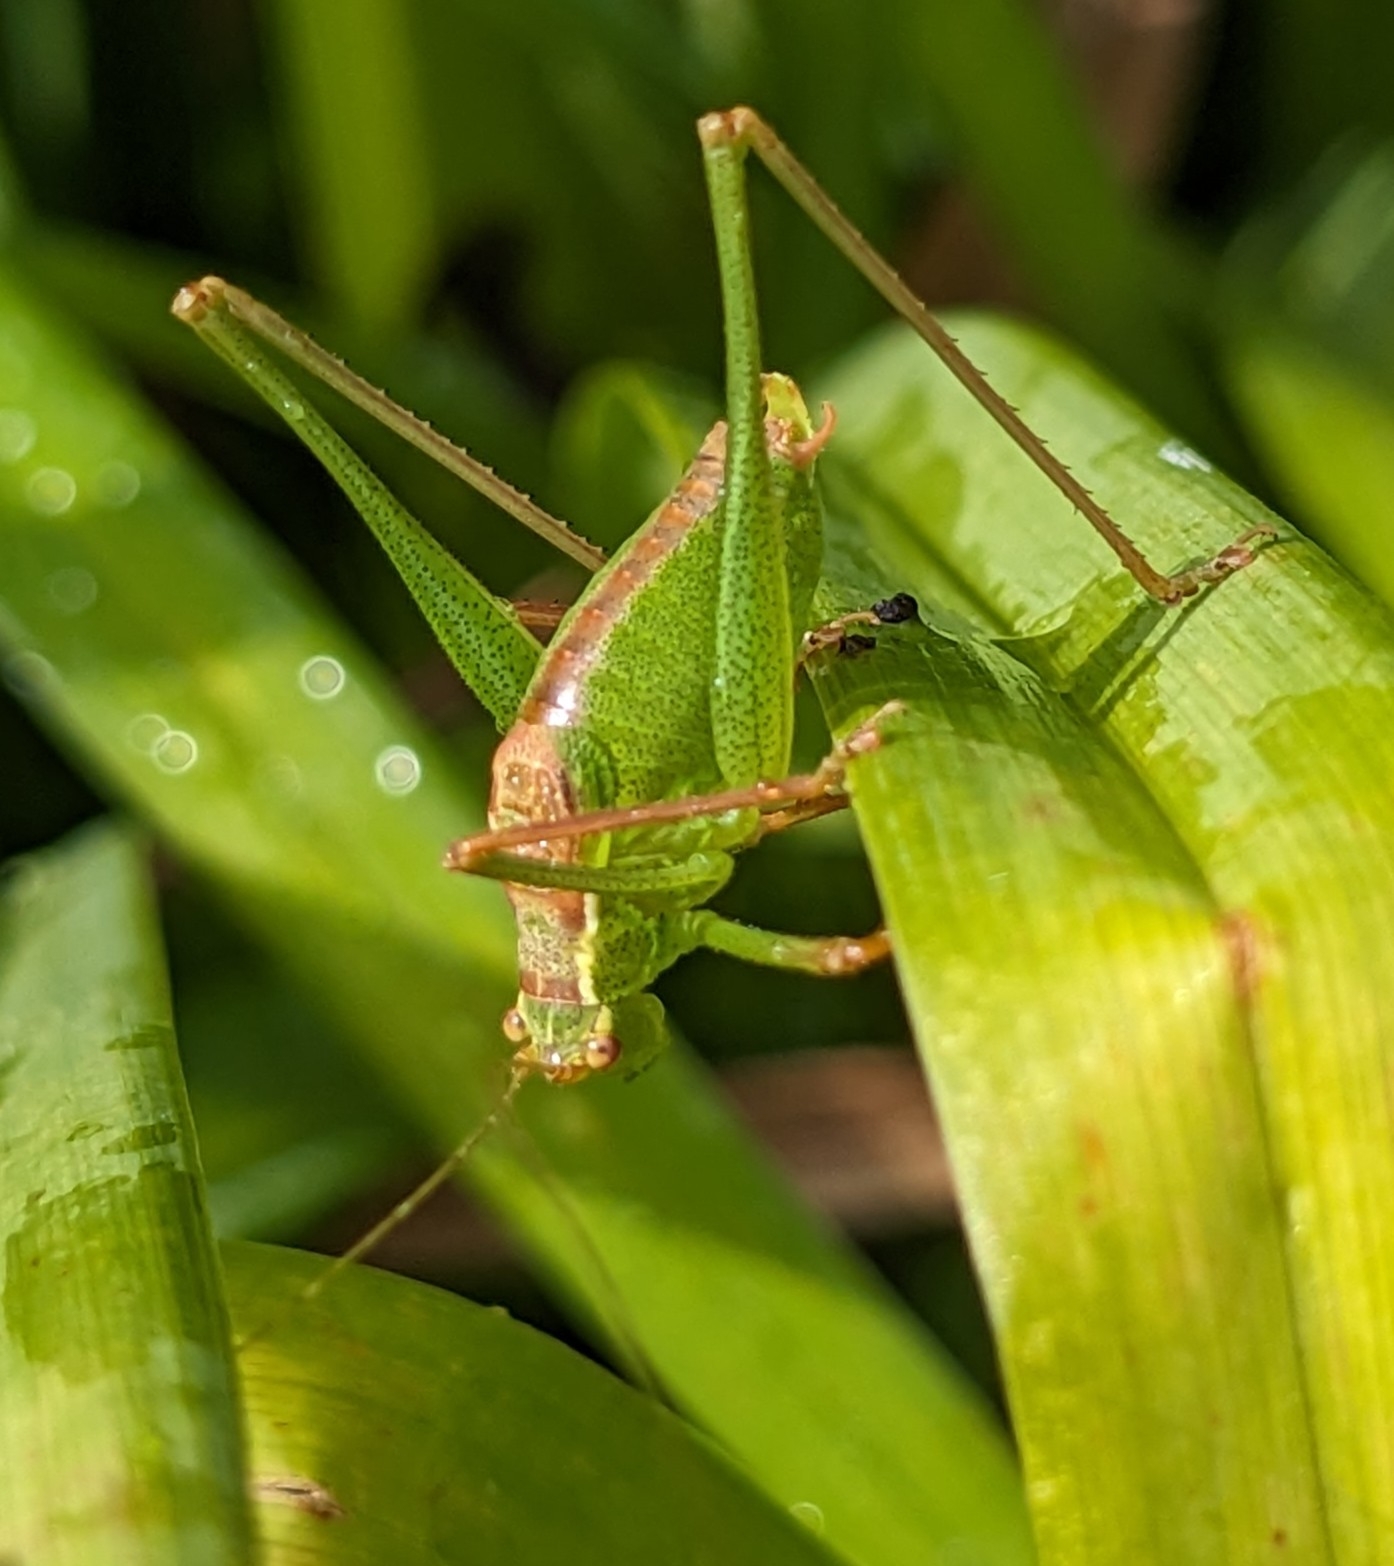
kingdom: Animalia
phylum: Arthropoda
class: Insecta
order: Orthoptera
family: Tettigoniidae
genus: Leptophyes
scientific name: Leptophyes punctatissima
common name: Krumknivgræshoppe
